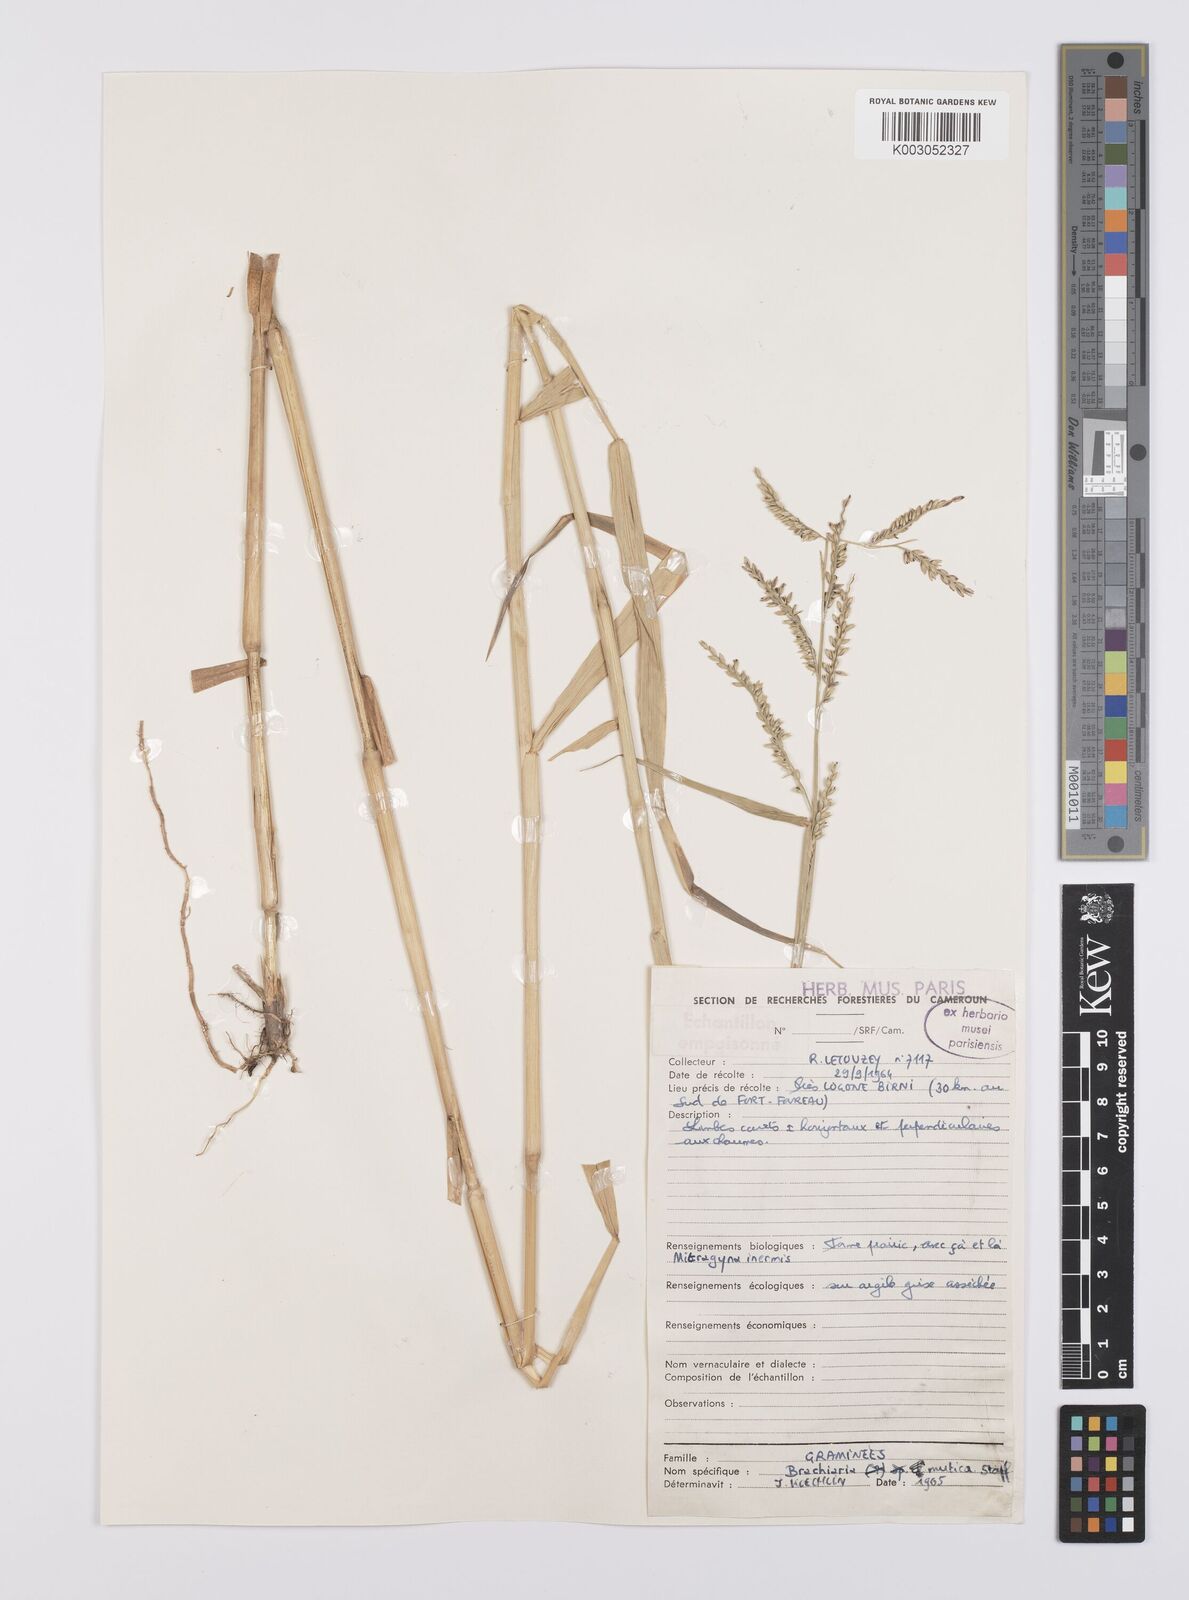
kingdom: Plantae
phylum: Tracheophyta
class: Liliopsida
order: Poales
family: Poaceae
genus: Urochloa
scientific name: Urochloa mutica
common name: Para grass
